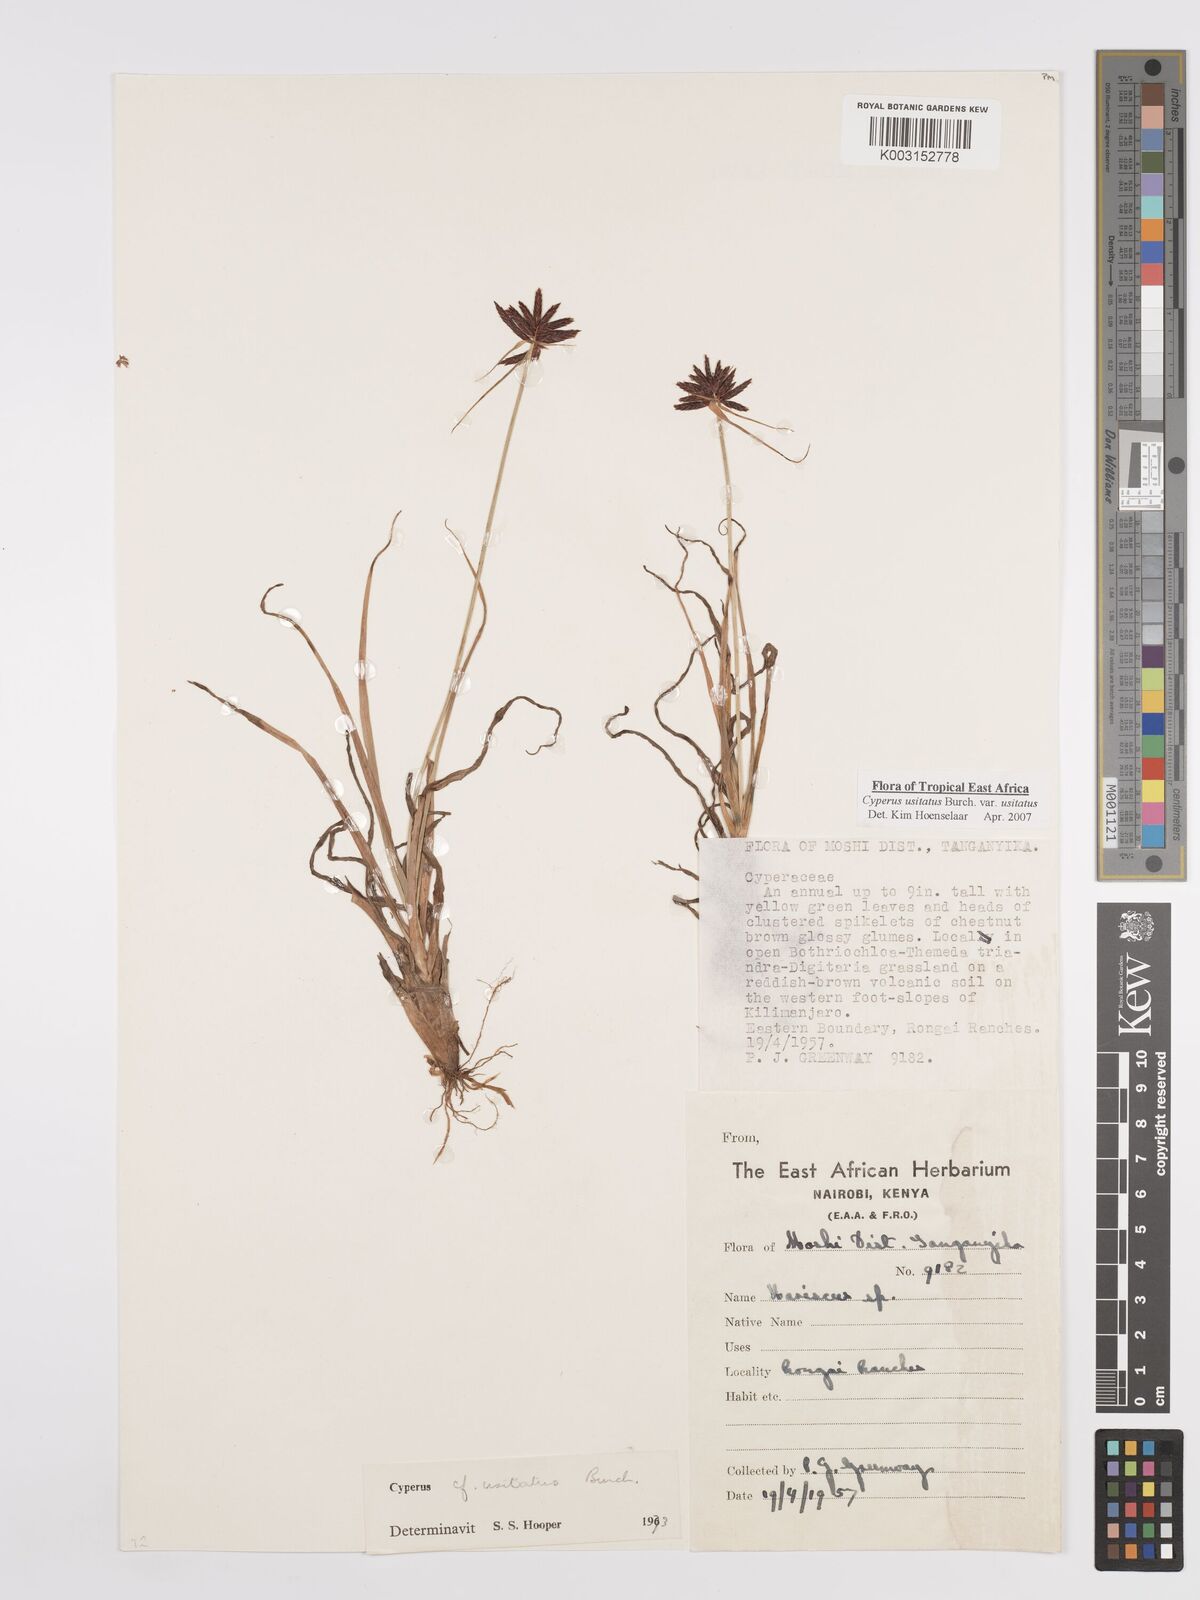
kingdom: Plantae
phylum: Tracheophyta
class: Liliopsida
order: Poales
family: Cyperaceae
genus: Cyperus
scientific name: Cyperus usitatus
